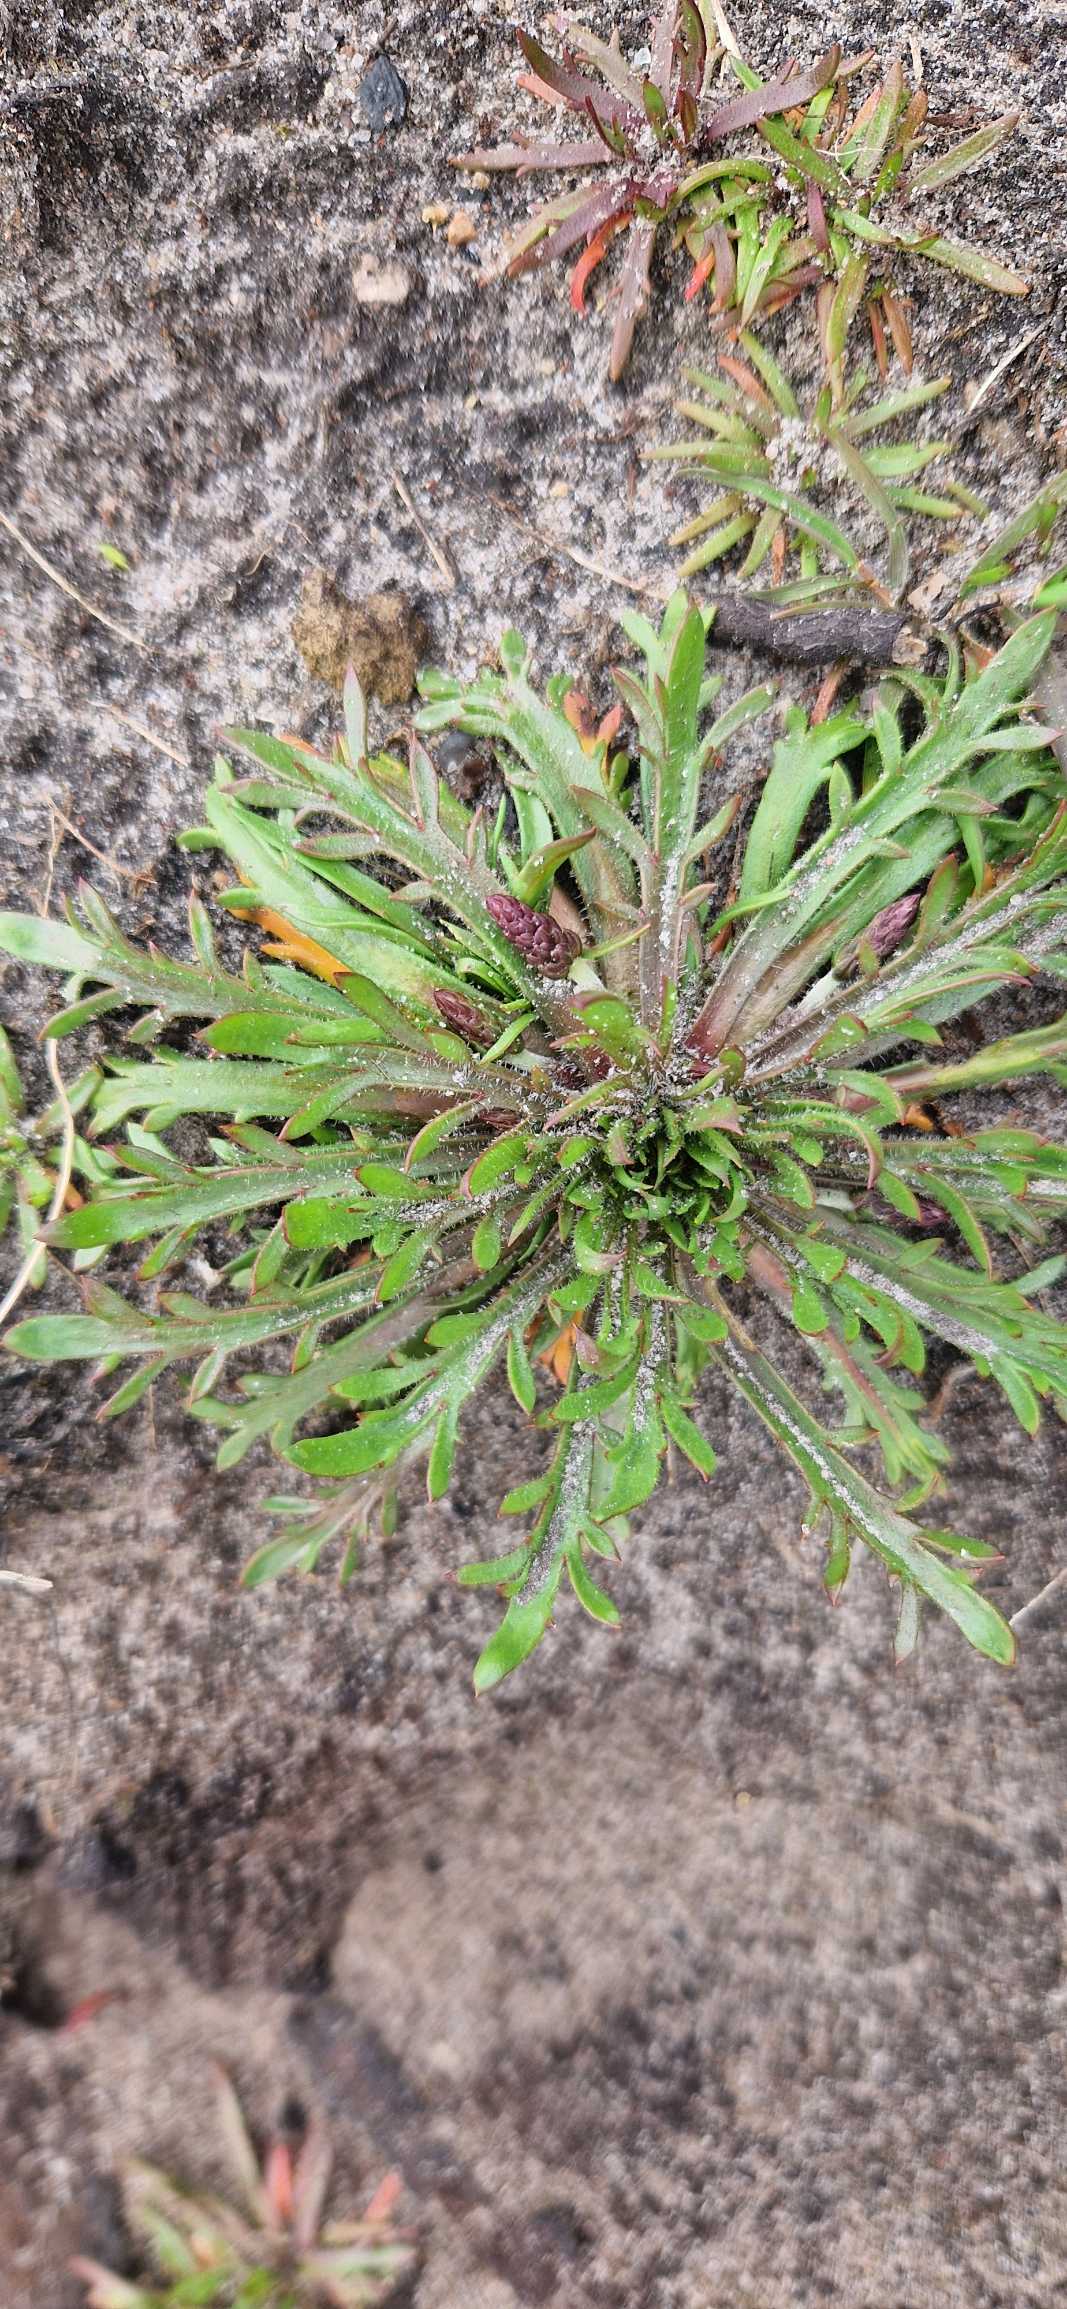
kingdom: Plantae
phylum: Tracheophyta
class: Magnoliopsida
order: Lamiales
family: Plantaginaceae
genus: Plantago
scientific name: Plantago coronopus
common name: Fliget vejbred
